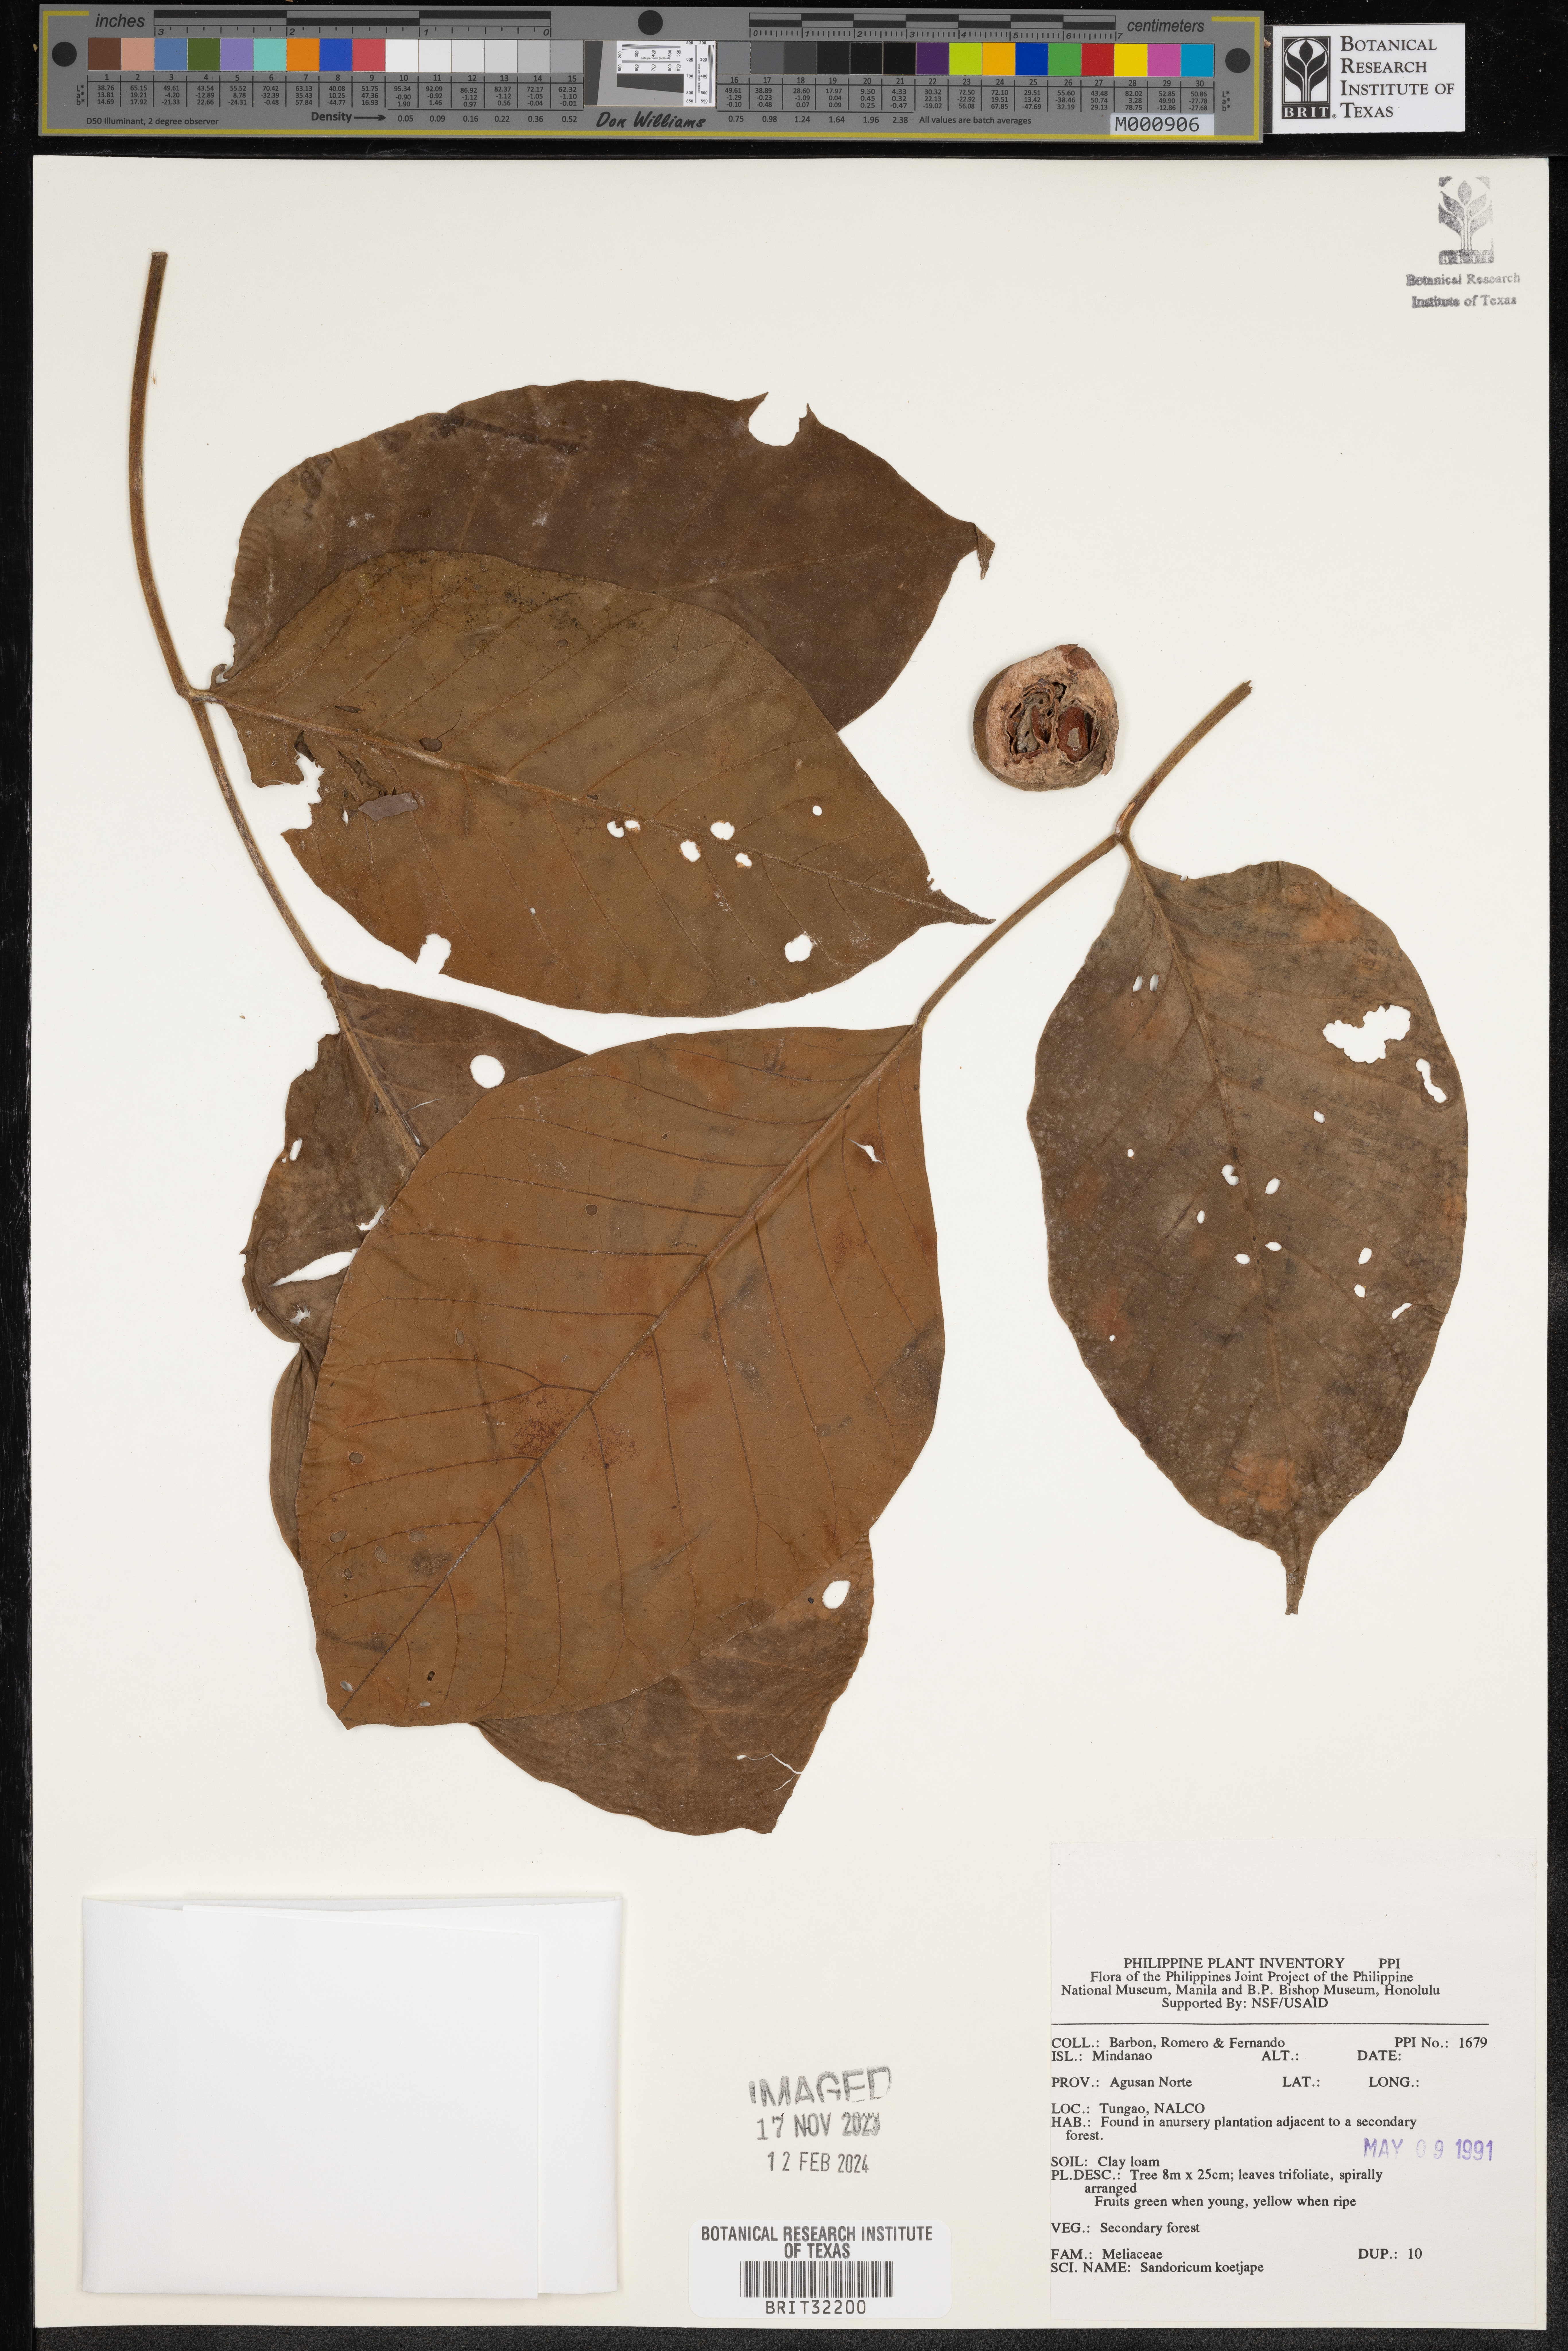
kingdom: Plantae
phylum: Tracheophyta
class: Magnoliopsida
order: Sapindales
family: Meliaceae
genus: Sandoricum
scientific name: Sandoricum koetjape
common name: Santol
